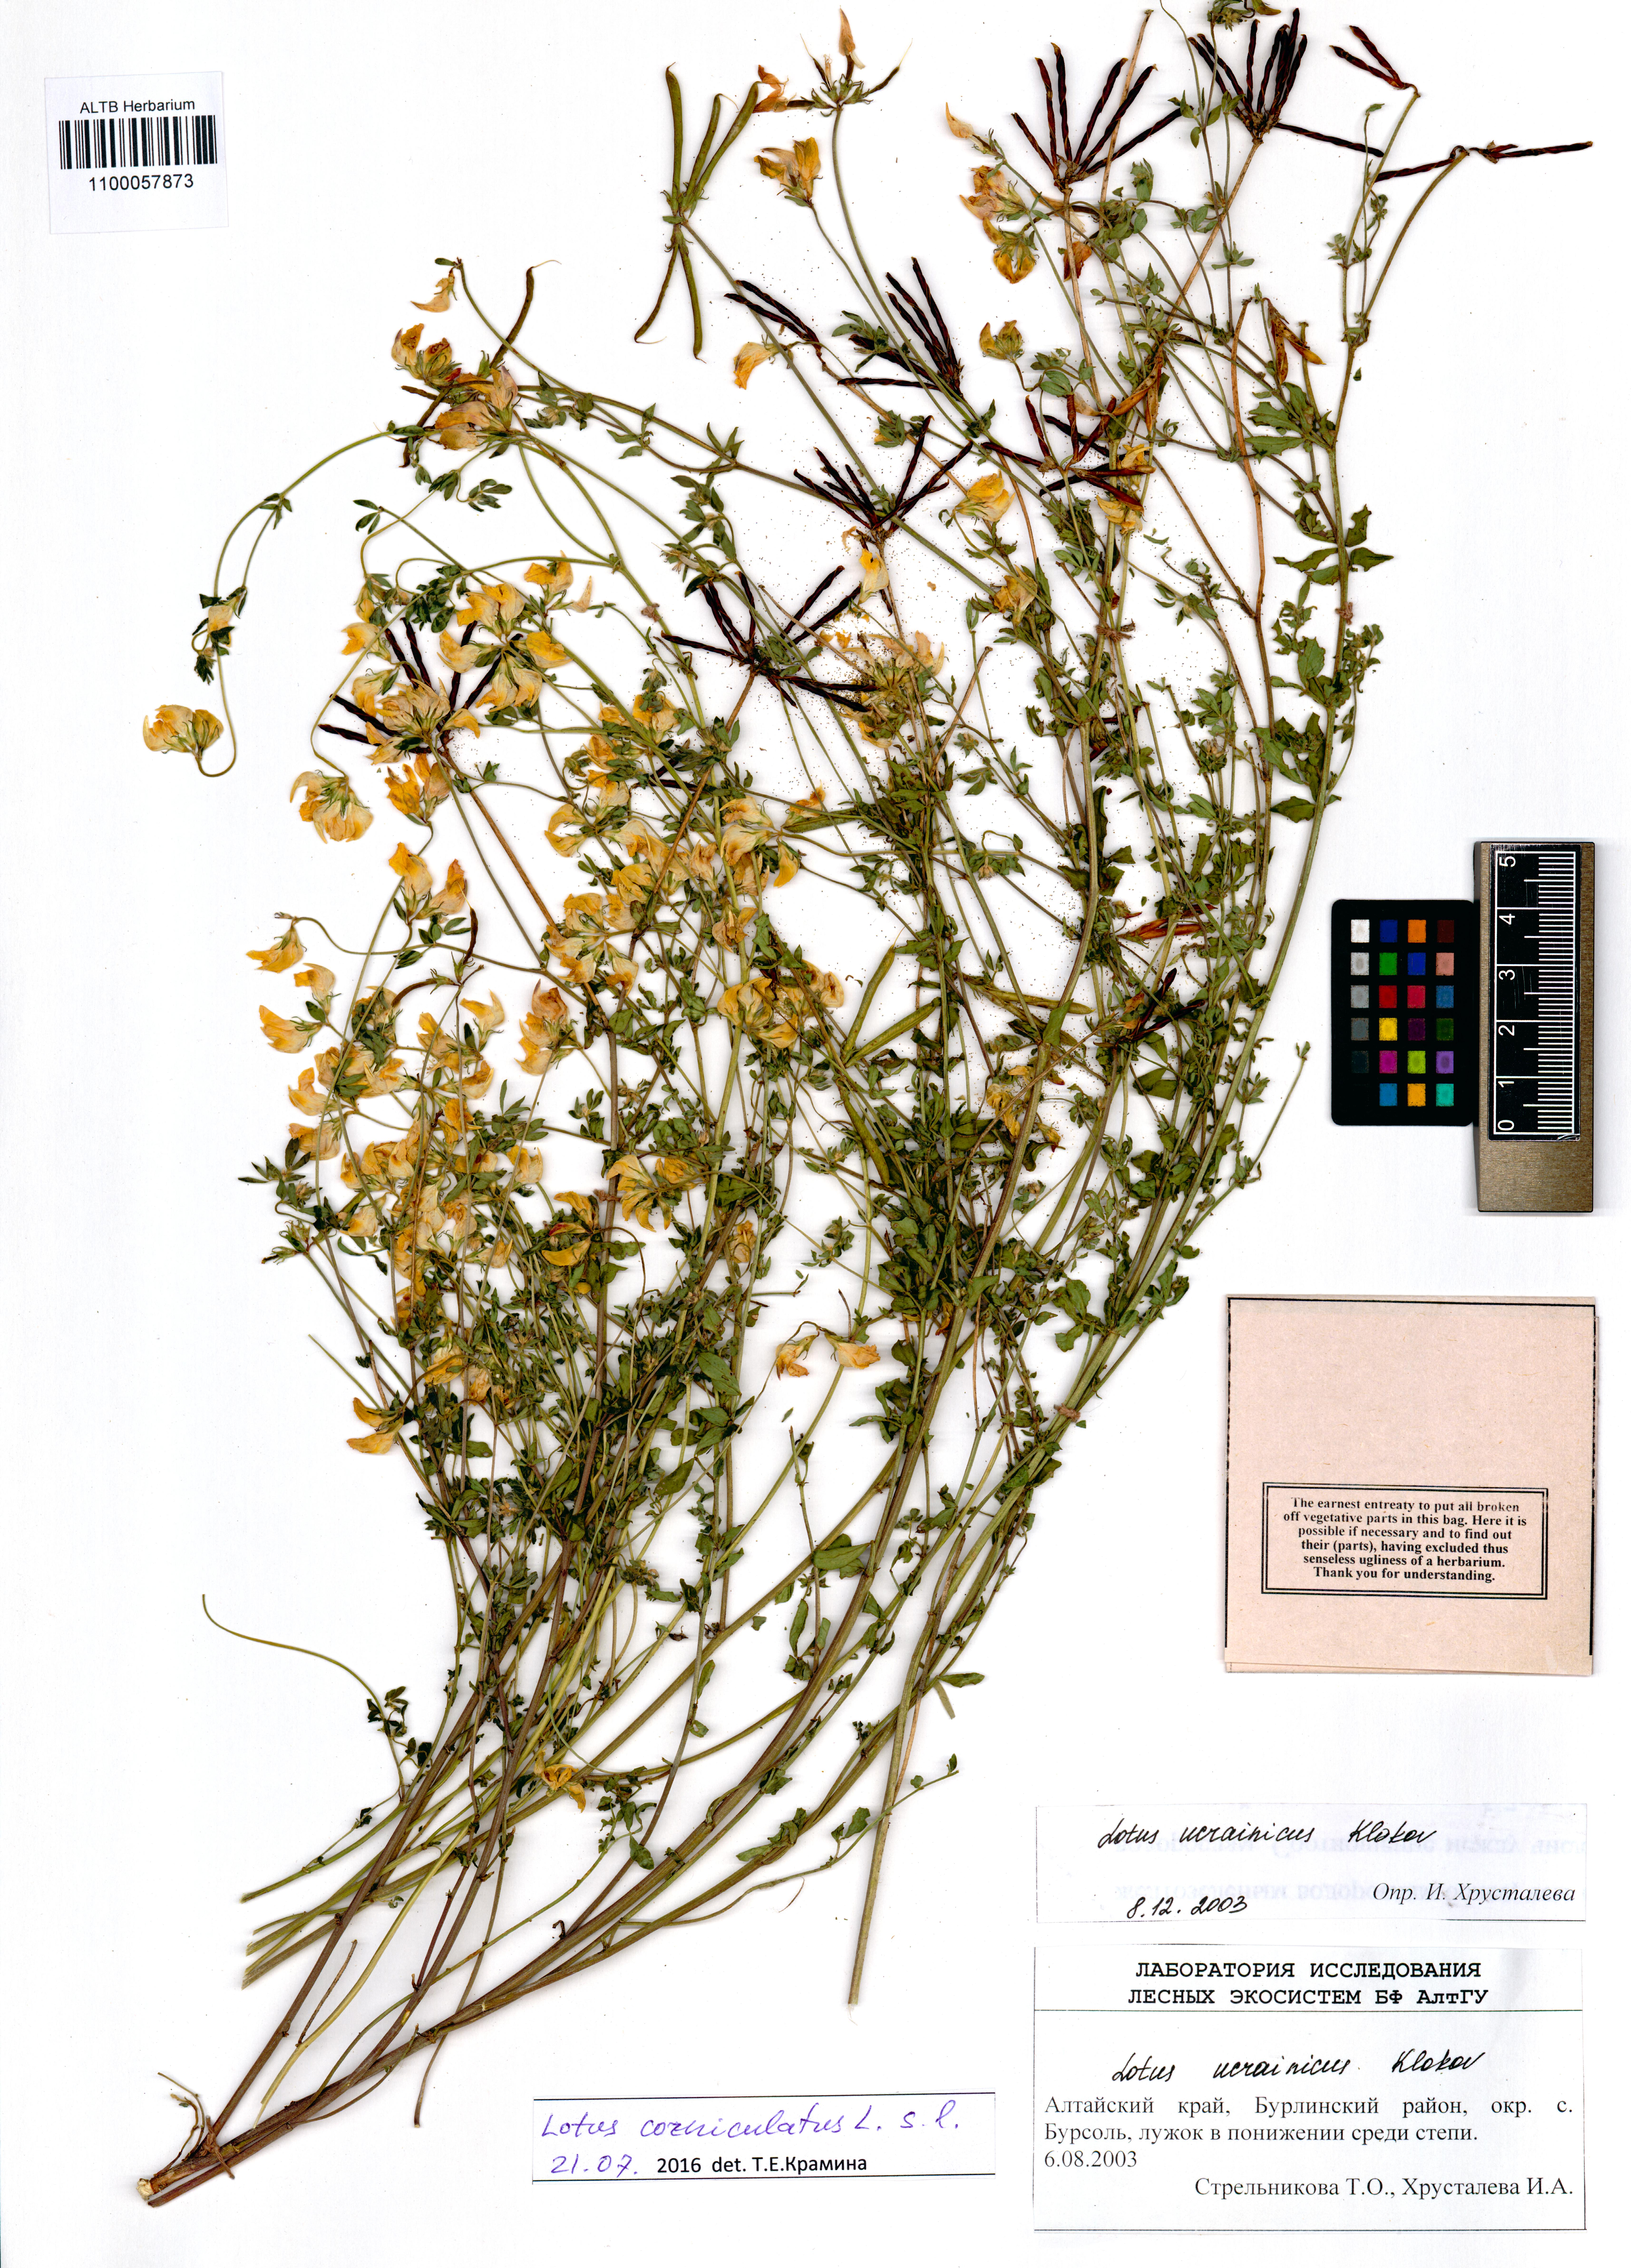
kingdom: Plantae
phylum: Tracheophyta
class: Magnoliopsida
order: Fabales
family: Fabaceae
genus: Lotus
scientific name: Lotus corniculatus
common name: Common bird's-foot-trefoil
